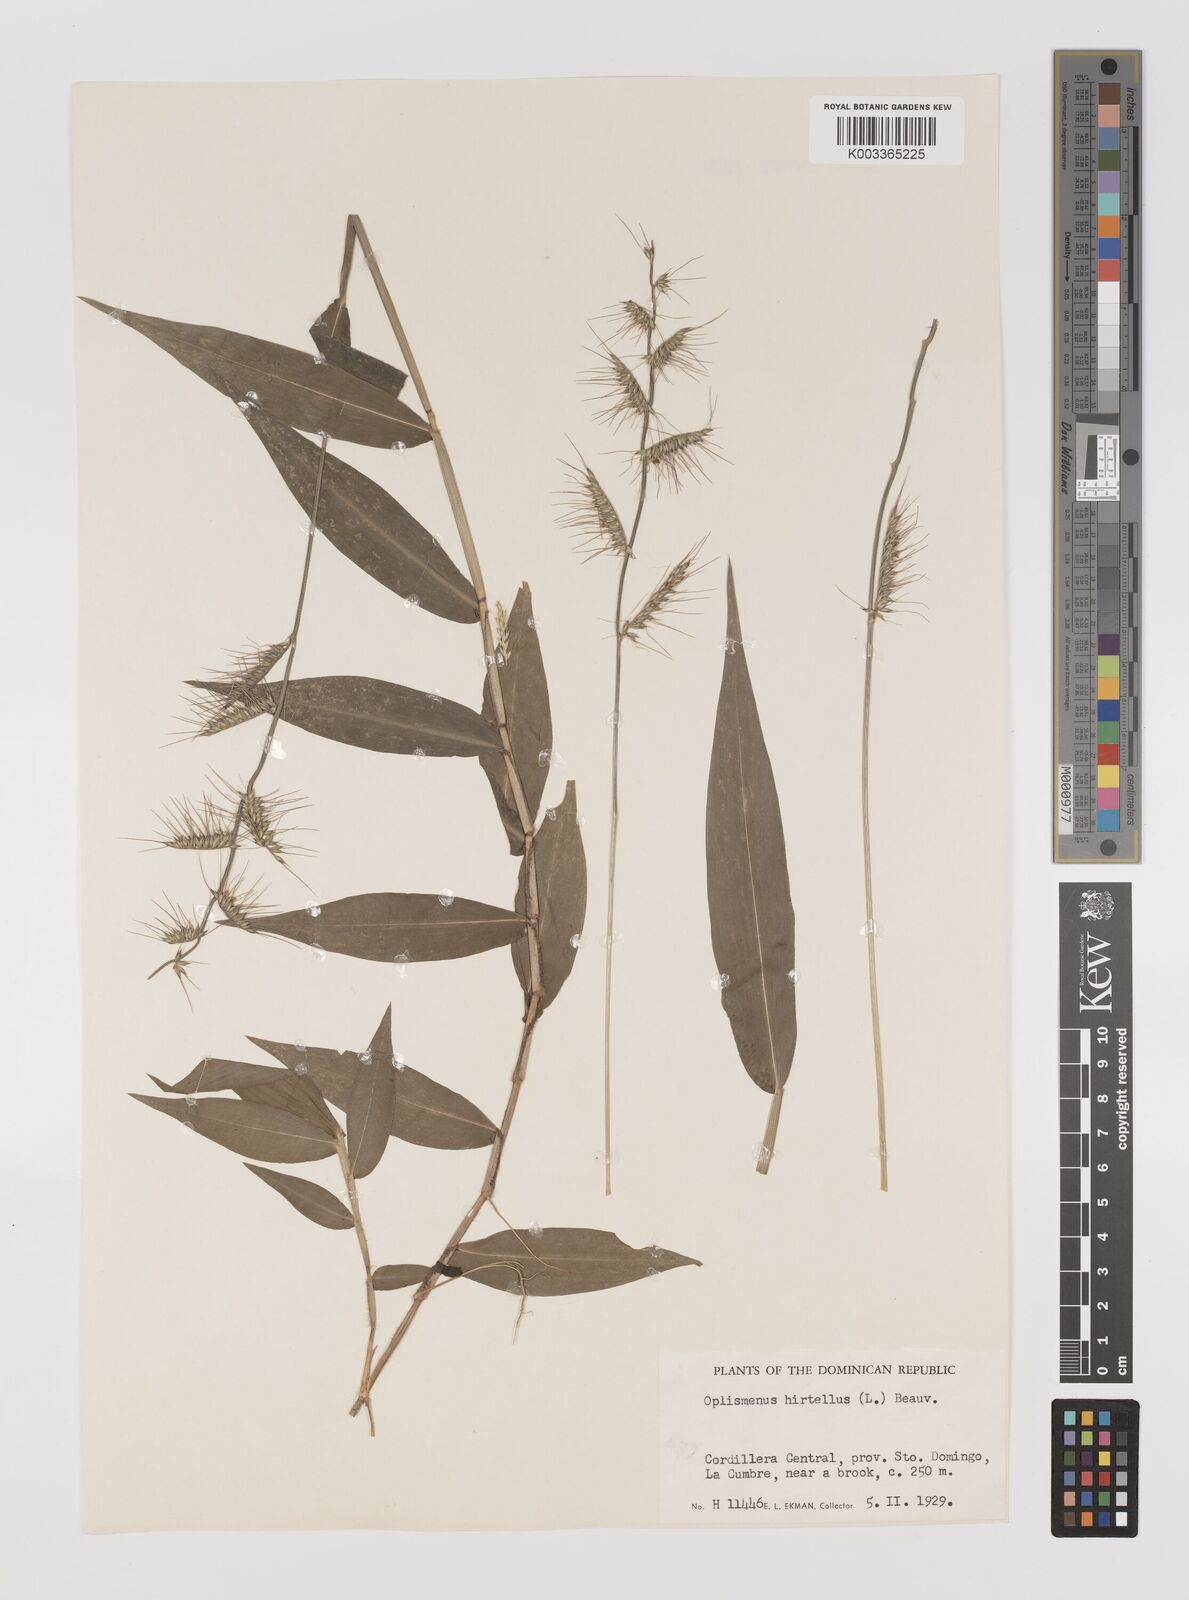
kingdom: Plantae
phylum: Tracheophyta
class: Liliopsida
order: Poales
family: Poaceae
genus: Oplismenus
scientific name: Oplismenus hirtellus
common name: Basketgrass
